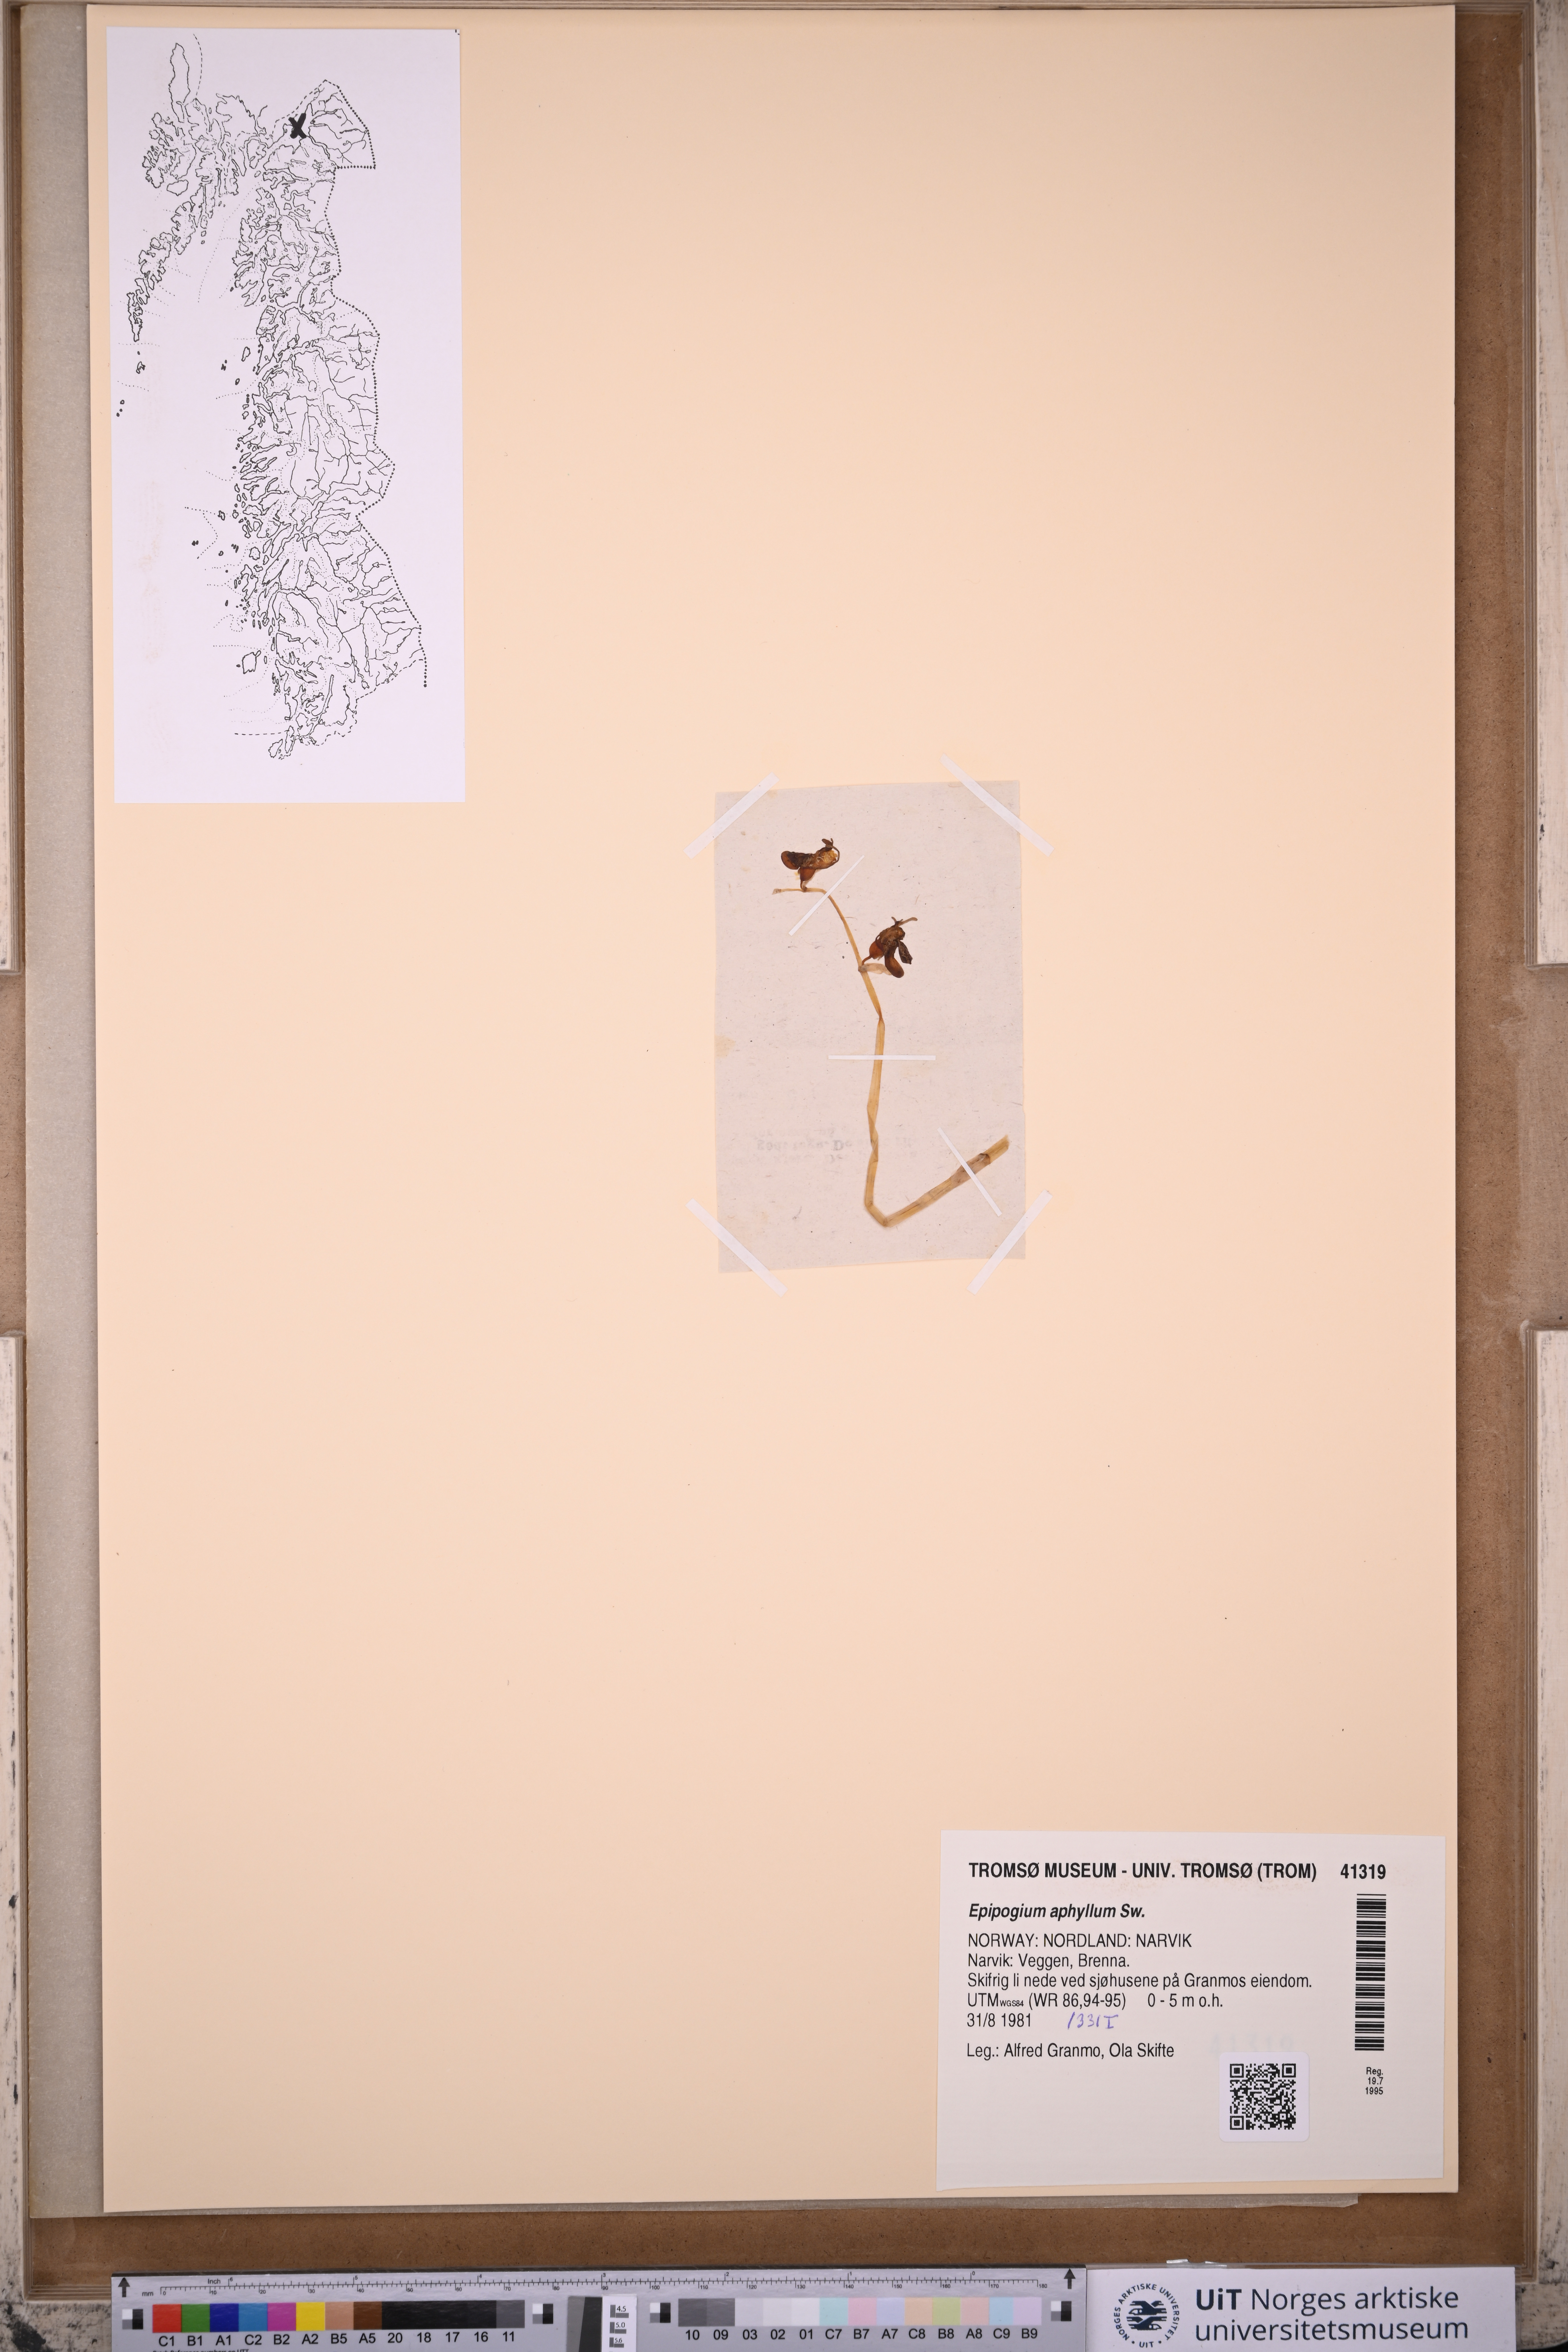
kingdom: Plantae
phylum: Tracheophyta
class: Liliopsida
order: Asparagales
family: Orchidaceae
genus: Epipogium
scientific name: Epipogium aphyllum
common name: Ghost orchid
